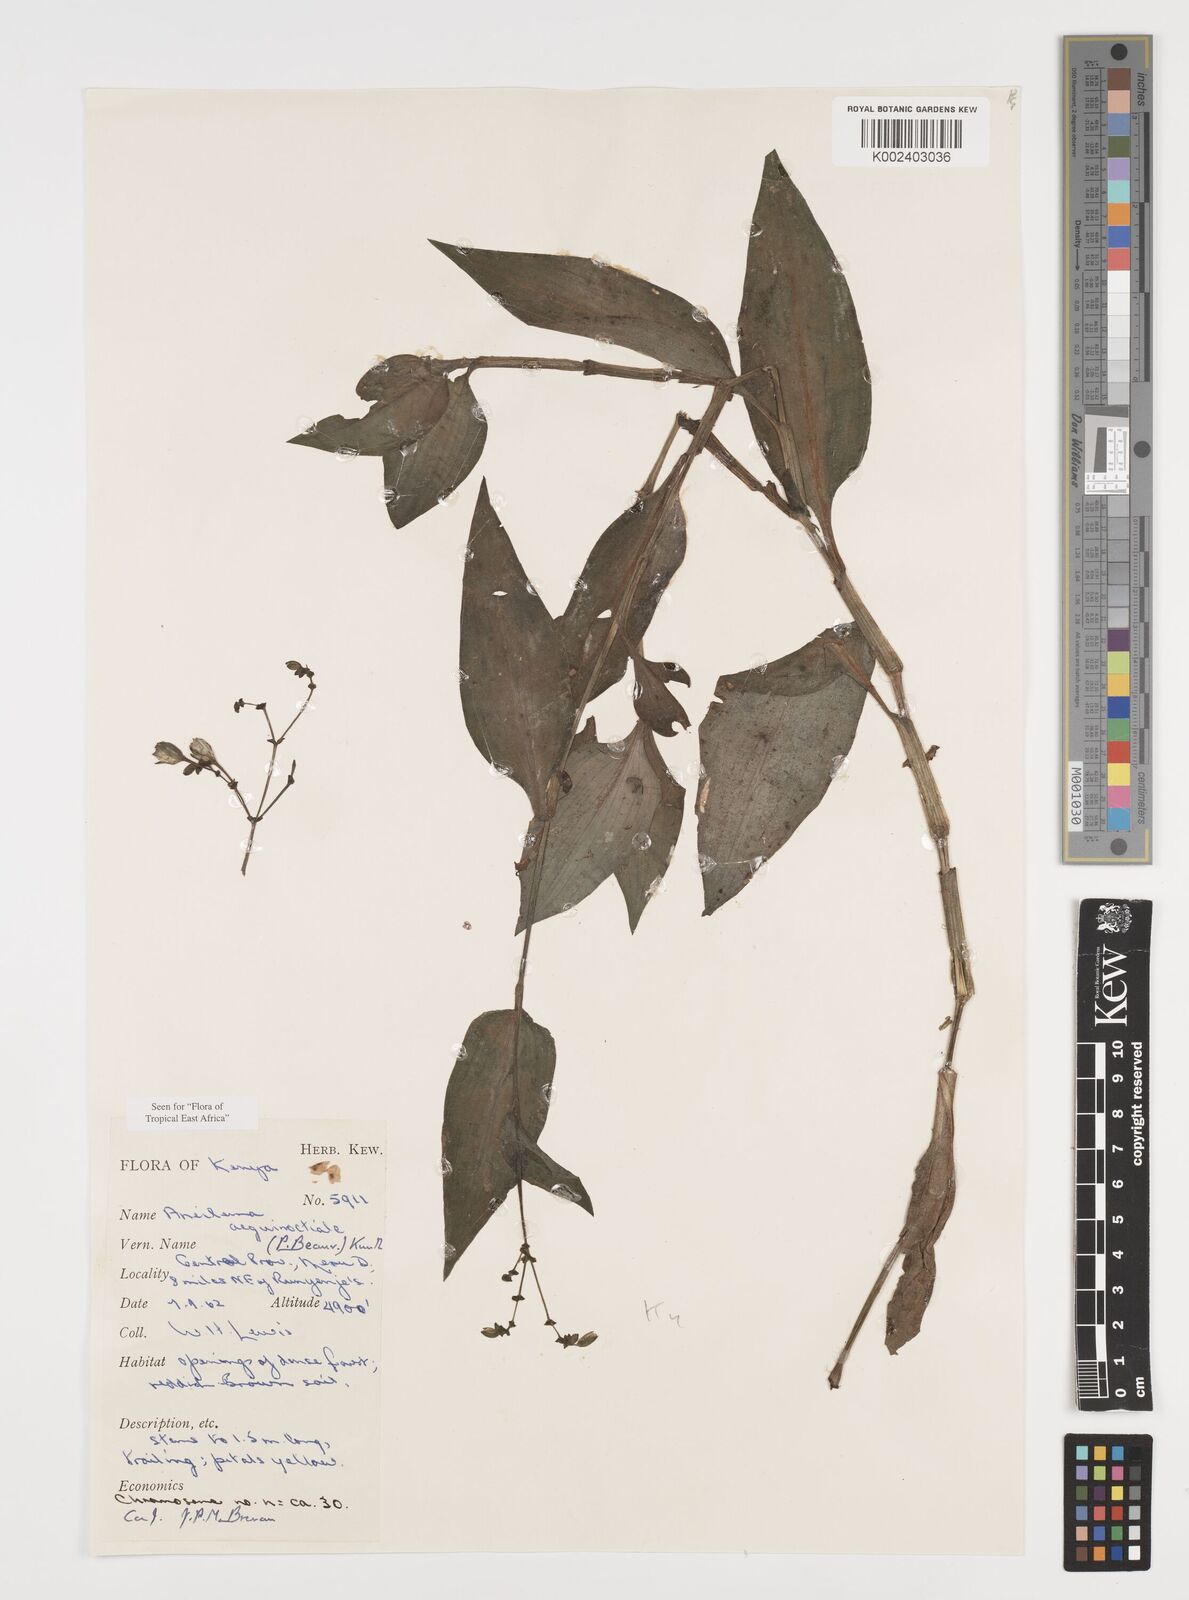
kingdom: Plantae
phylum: Tracheophyta
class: Liliopsida
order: Commelinales
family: Commelinaceae
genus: Aneilema
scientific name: Aneilema aequinoctiale
